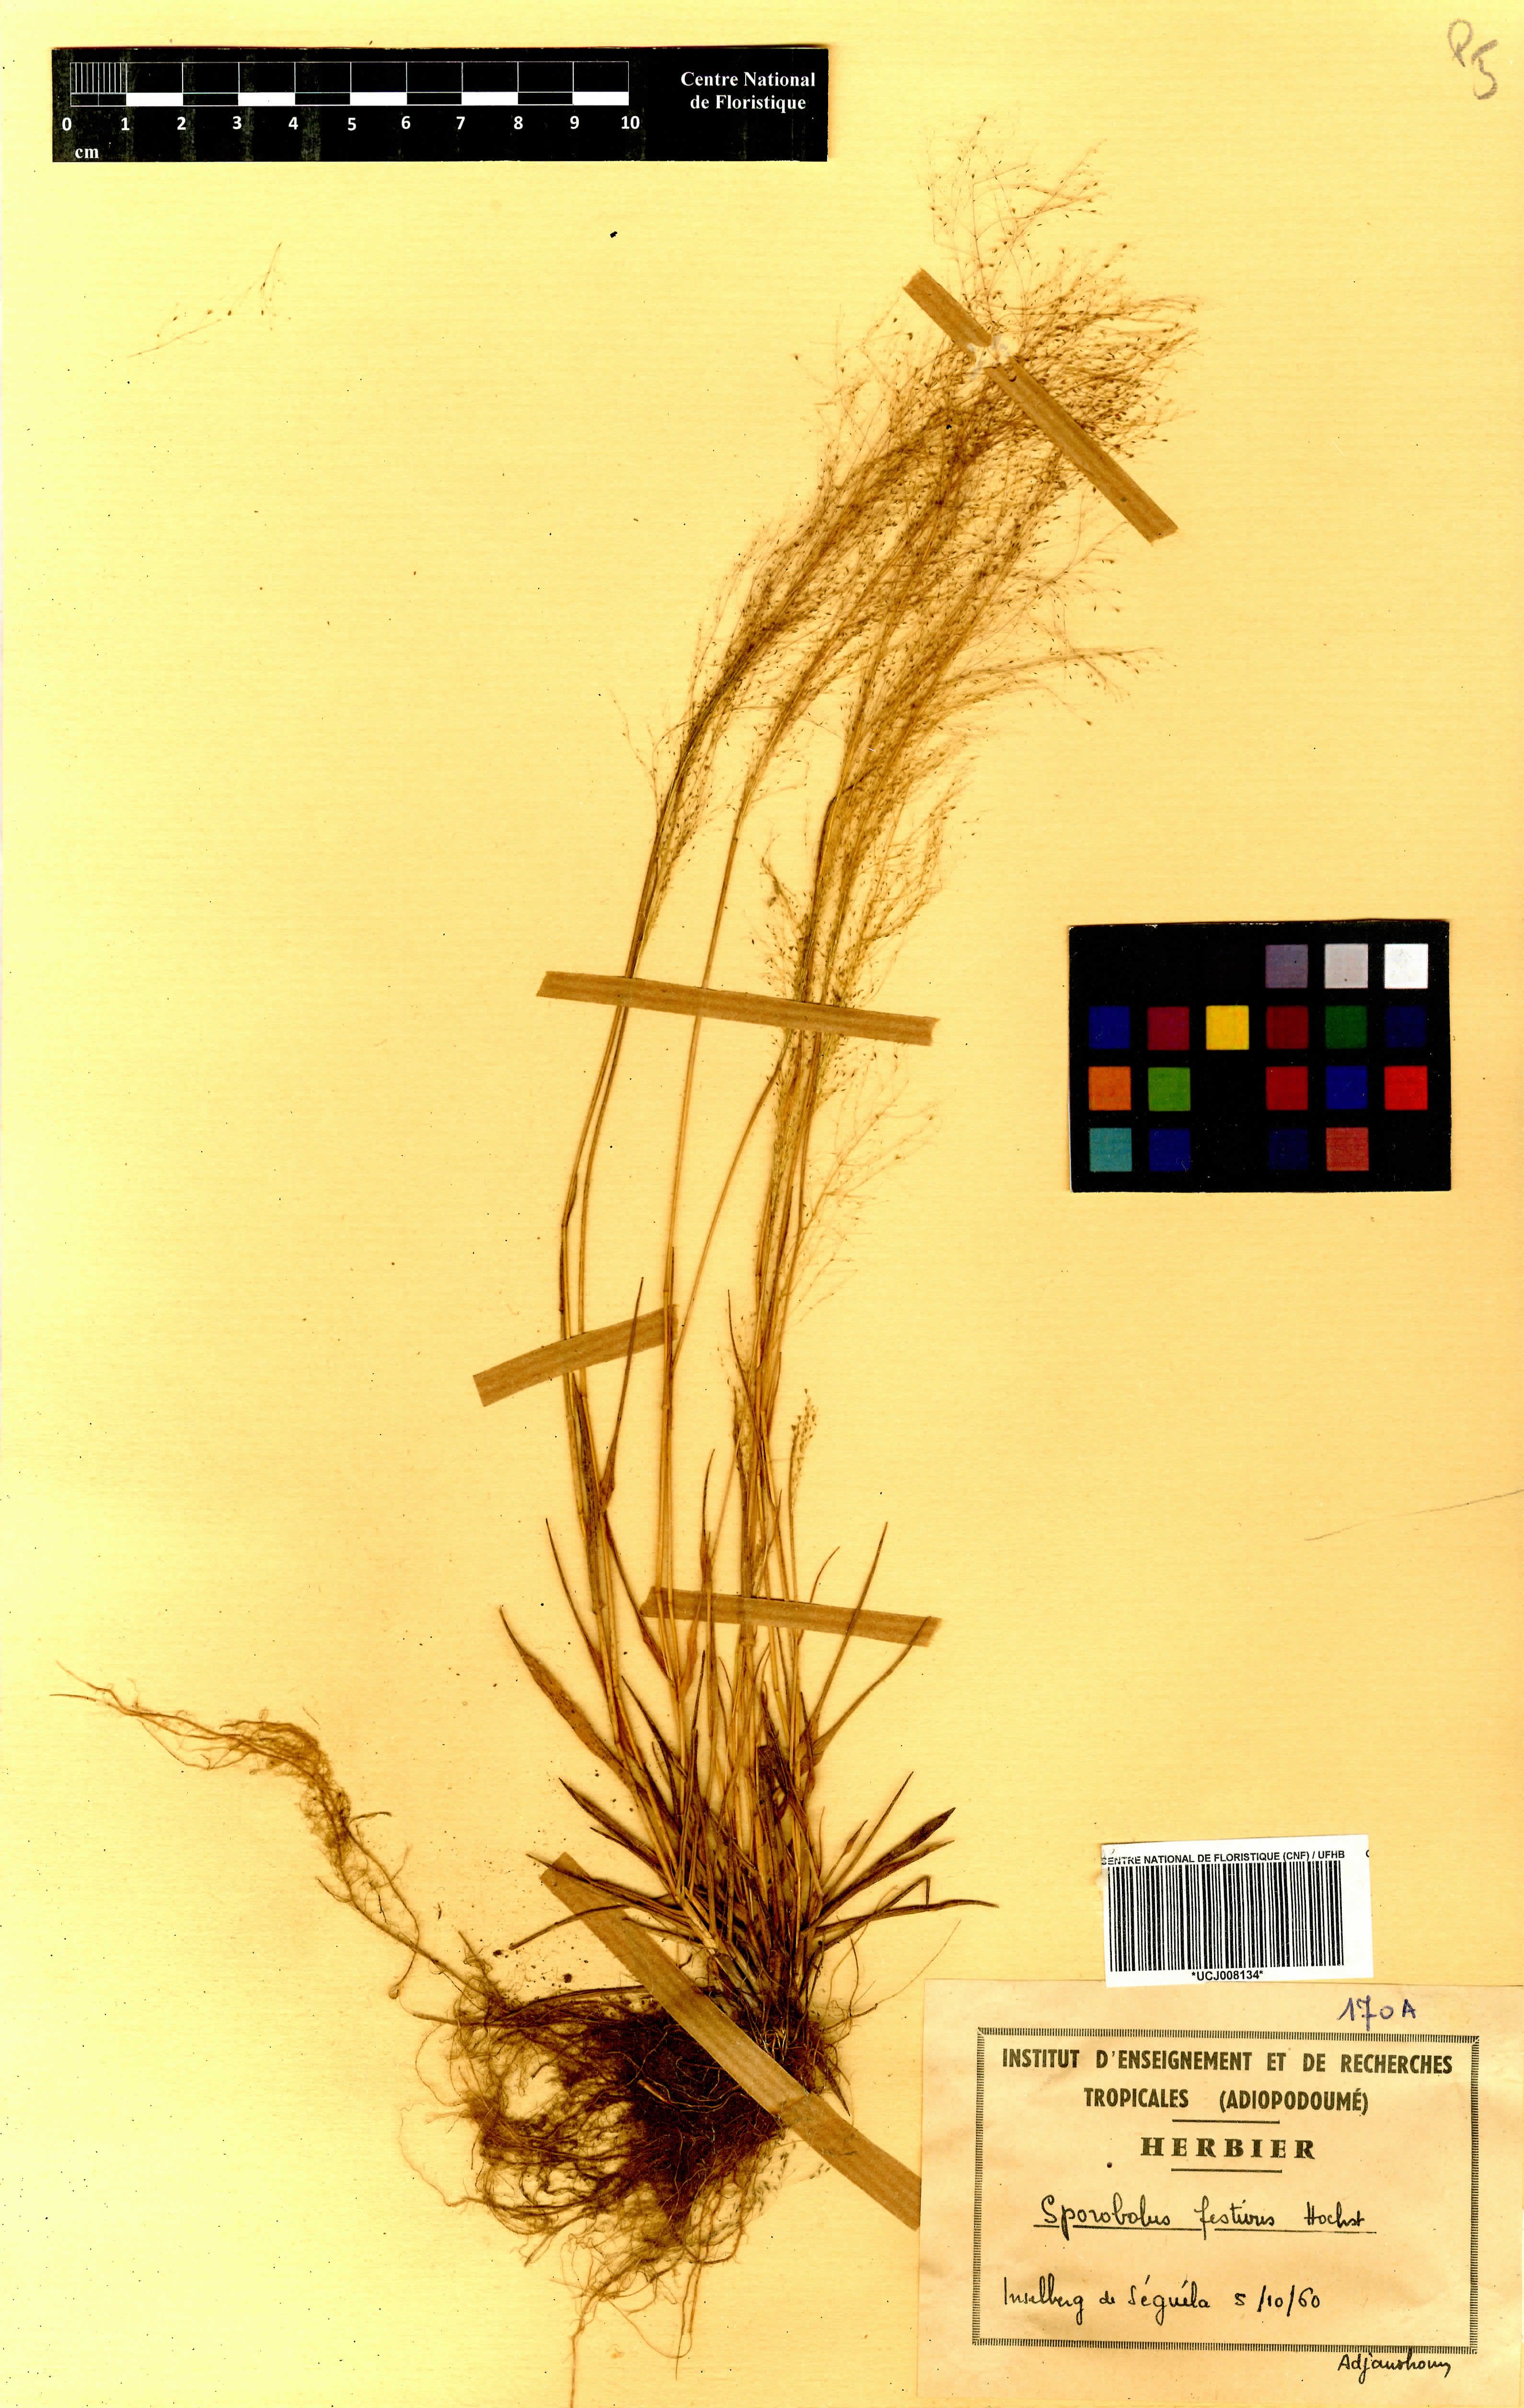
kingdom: Plantae
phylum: Tracheophyta
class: Liliopsida
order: Poales
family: Poaceae
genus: Sporobolus
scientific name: Sporobolus festivus
